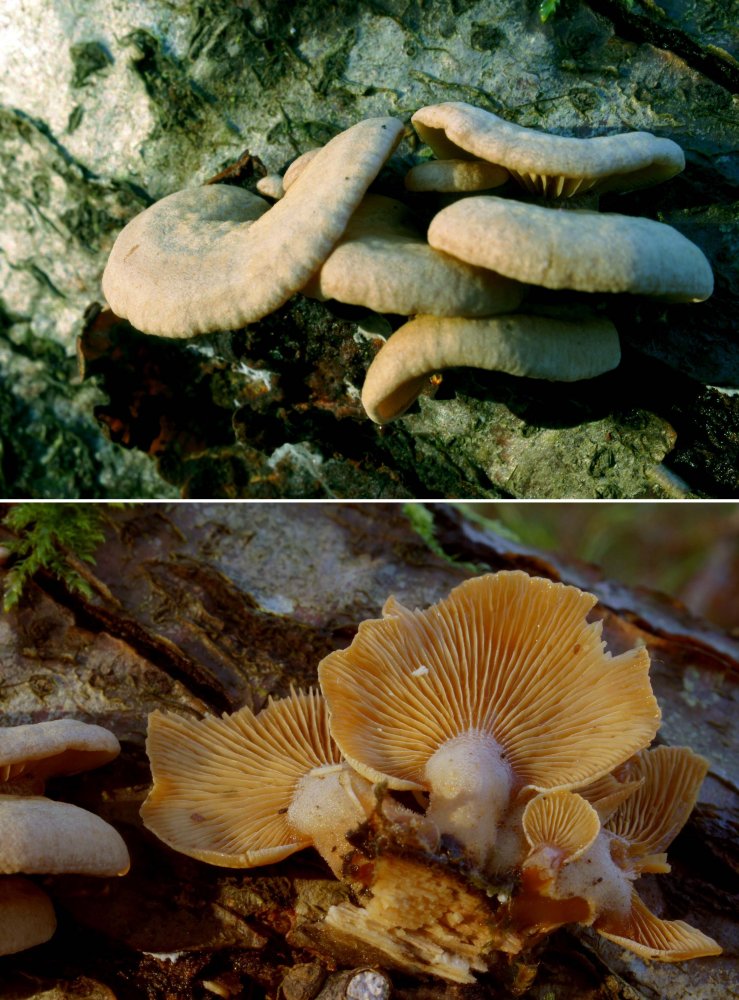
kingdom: Fungi
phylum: Basidiomycota
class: Agaricomycetes
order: Agaricales
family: Mycenaceae
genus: Panellus
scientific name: Panellus stipticus
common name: kliddet epaulethat
